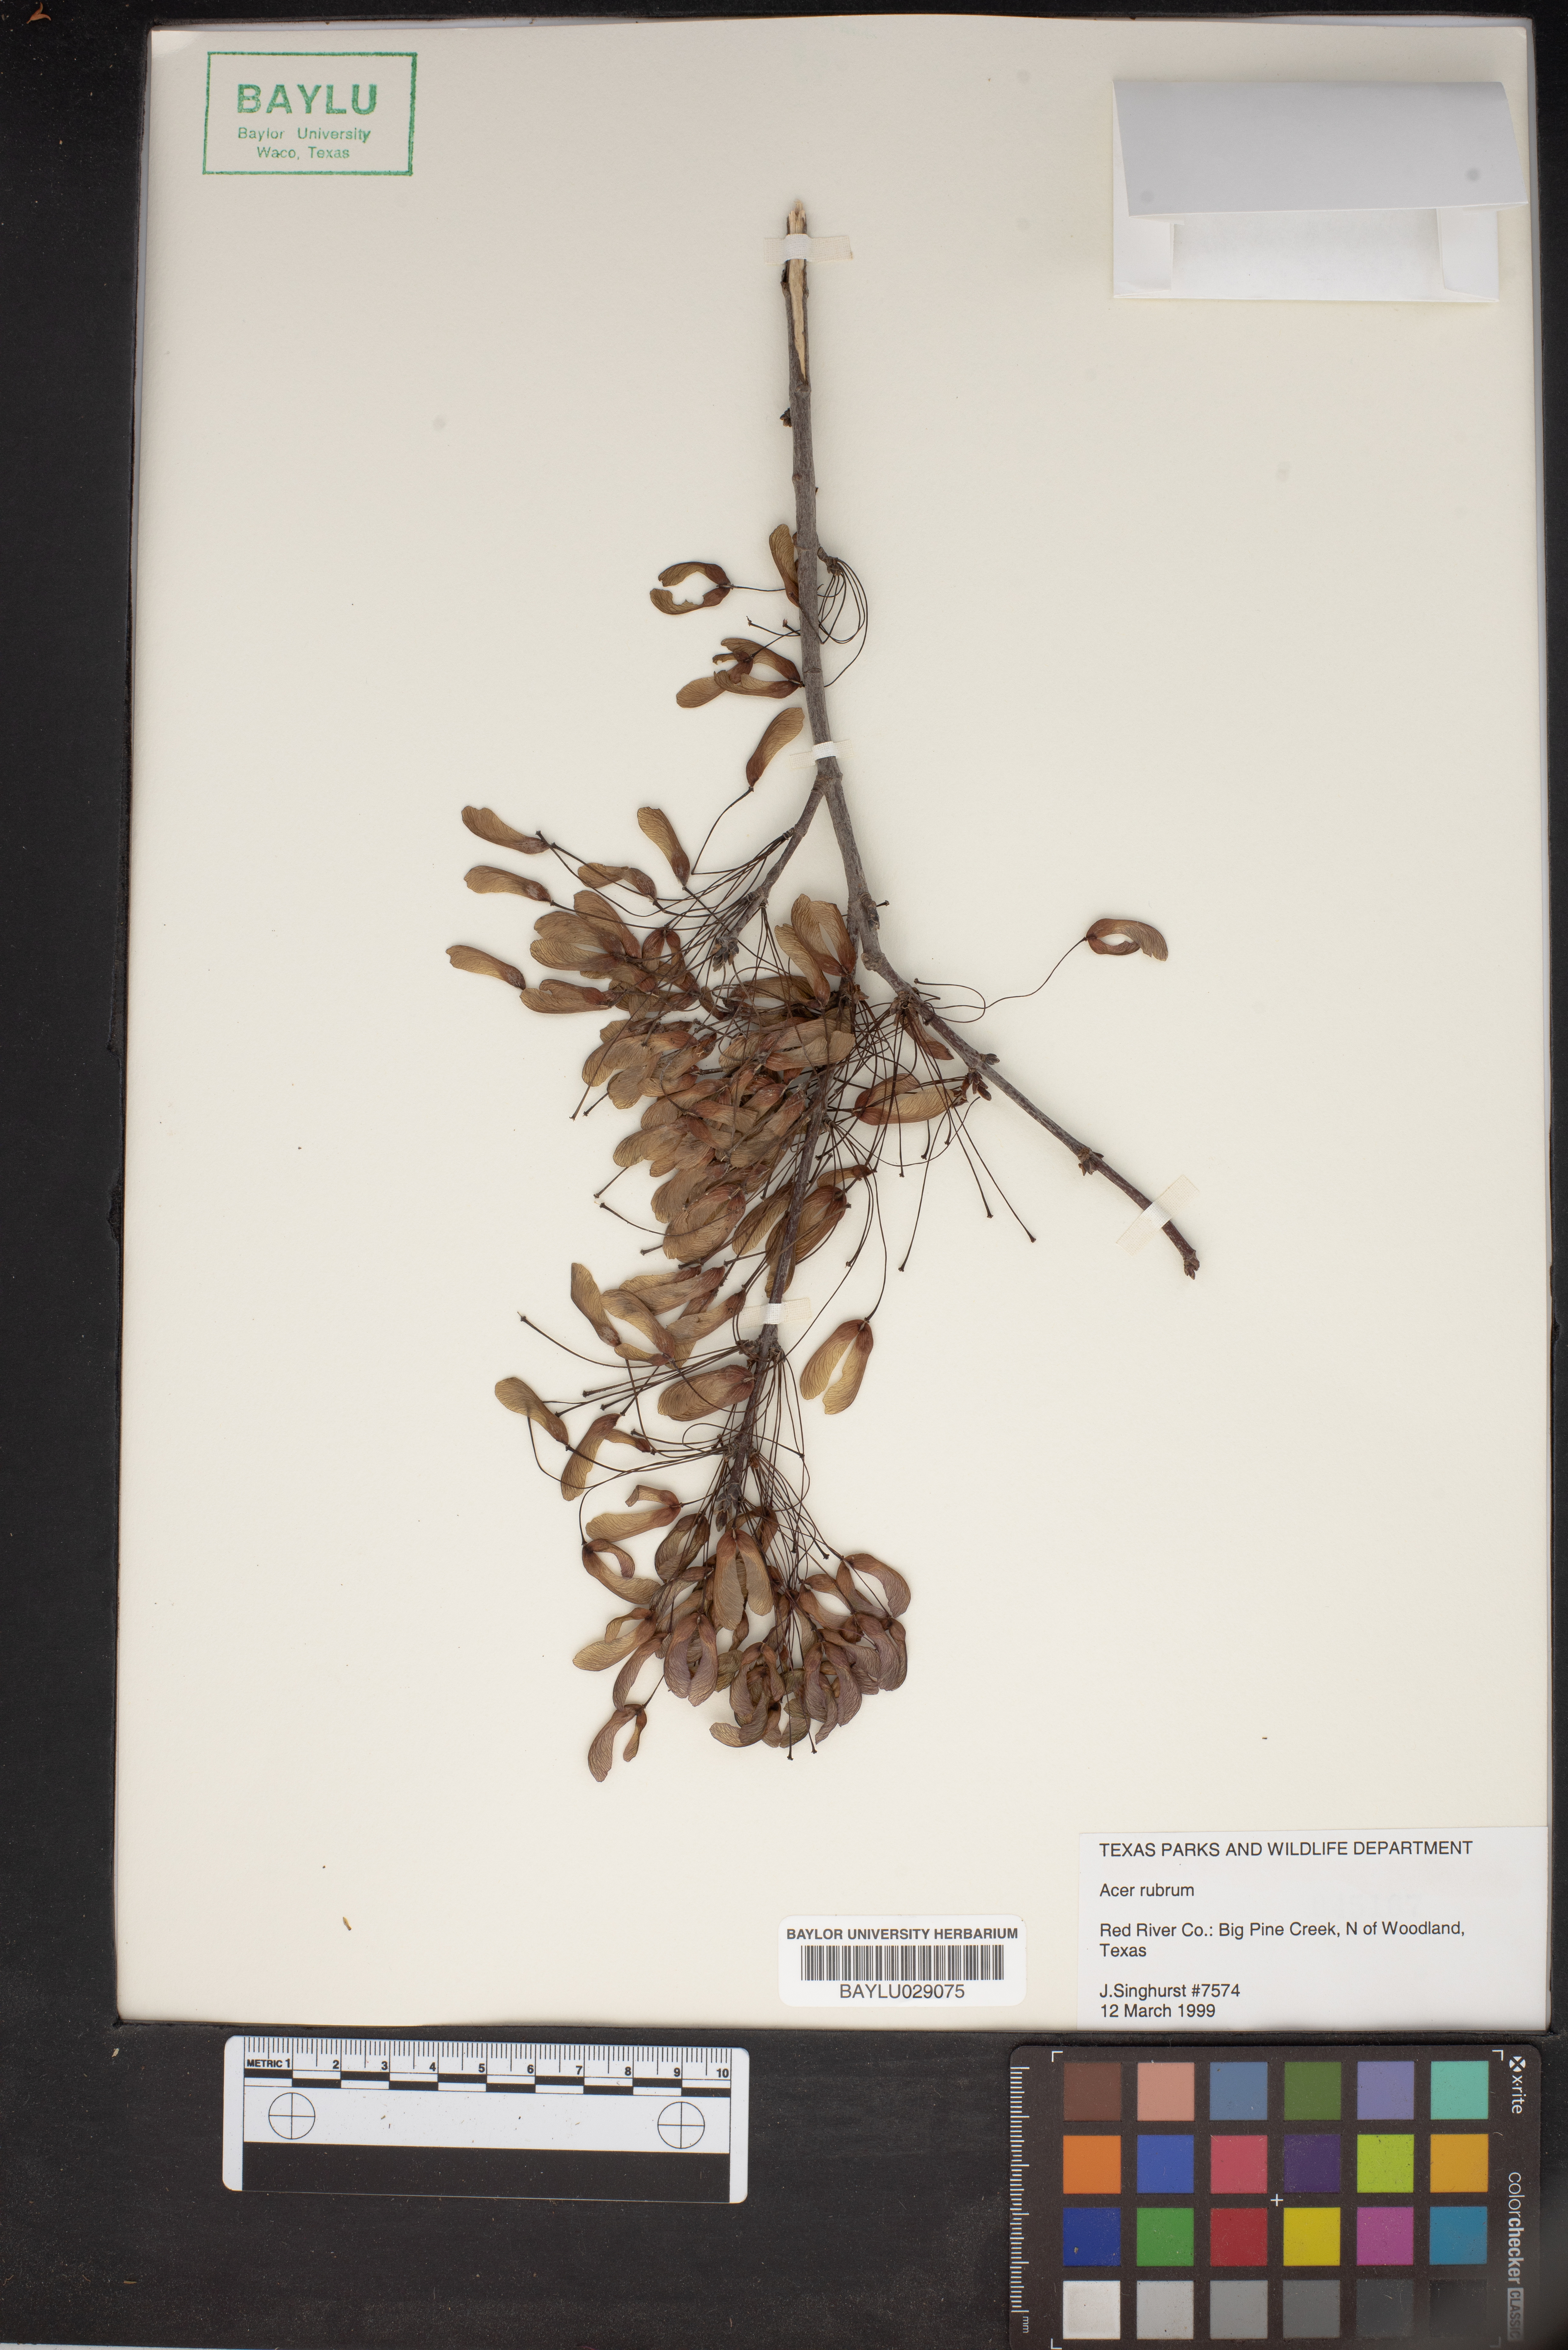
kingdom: Plantae
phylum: Tracheophyta
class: Magnoliopsida
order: Sapindales
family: Sapindaceae
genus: Acer
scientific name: Acer rubrum
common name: Red maple
